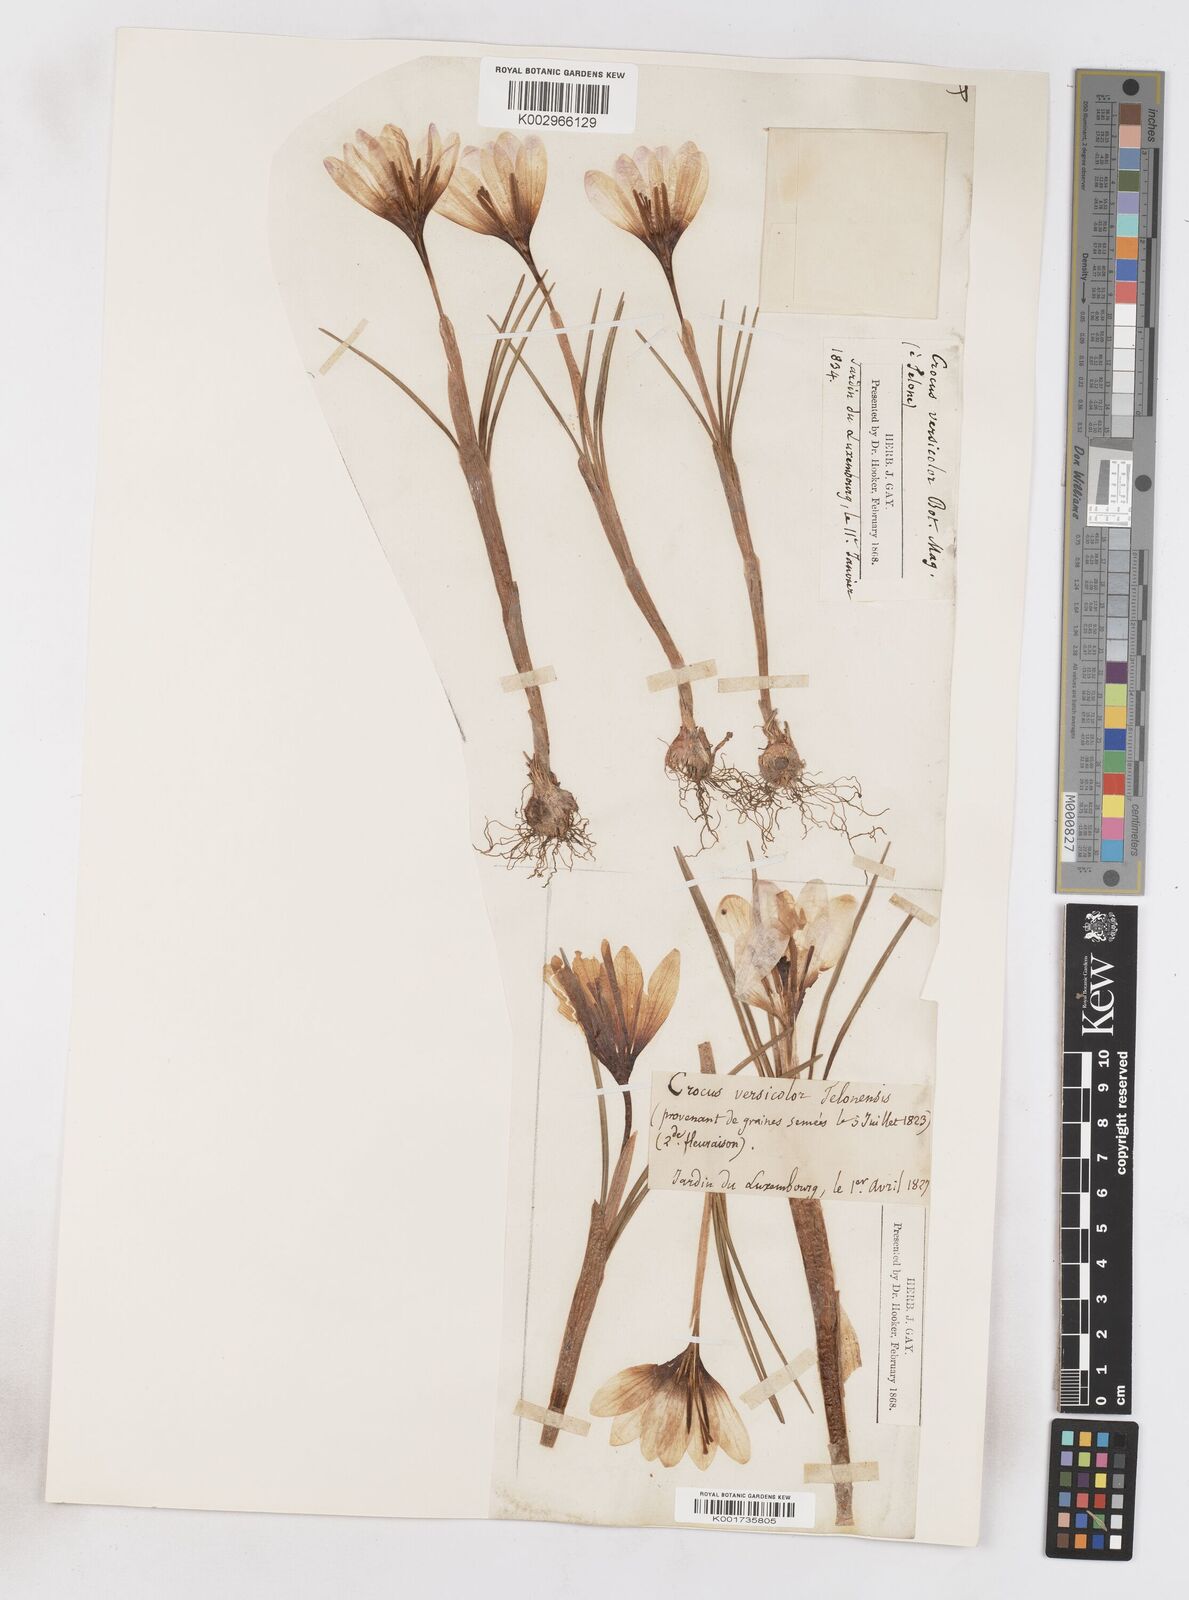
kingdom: Plantae
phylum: Tracheophyta
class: Liliopsida
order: Asparagales
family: Iridaceae
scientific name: Iridaceae
